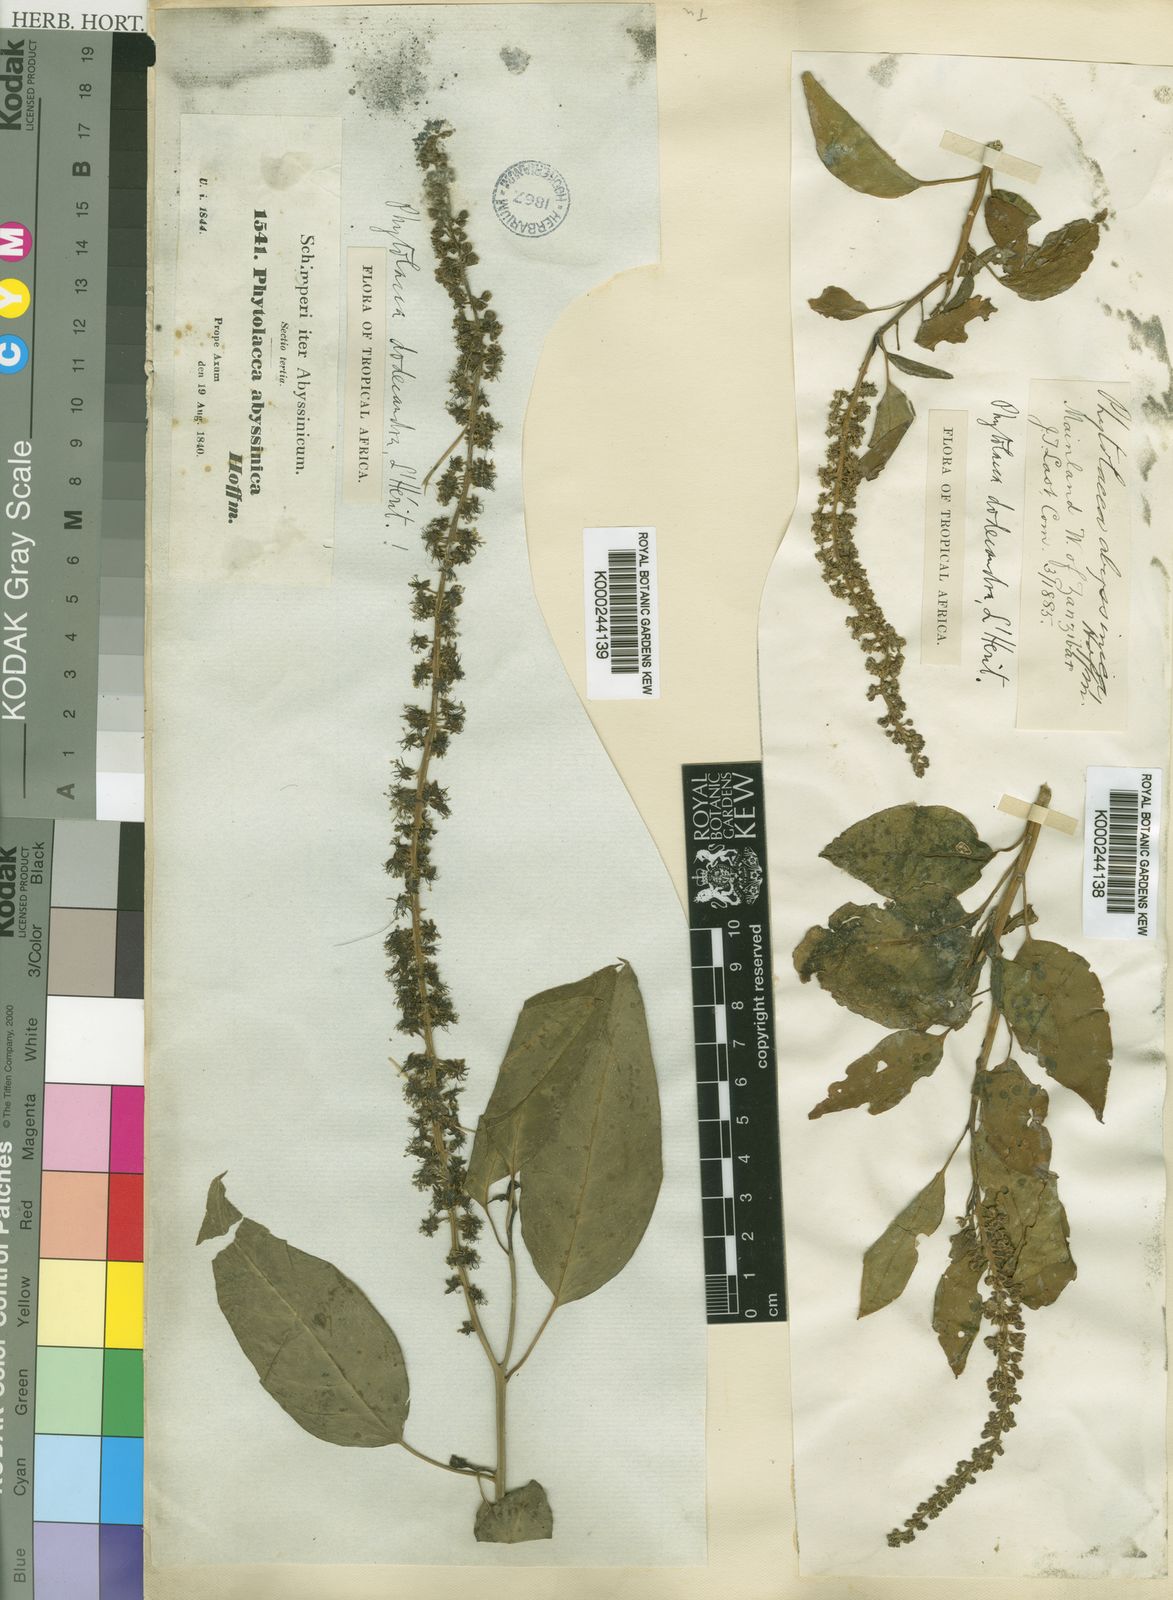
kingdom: Plantae
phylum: Tracheophyta
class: Magnoliopsida
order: Caryophyllales
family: Phytolaccaceae
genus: Phytolacca
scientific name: Phytolacca
